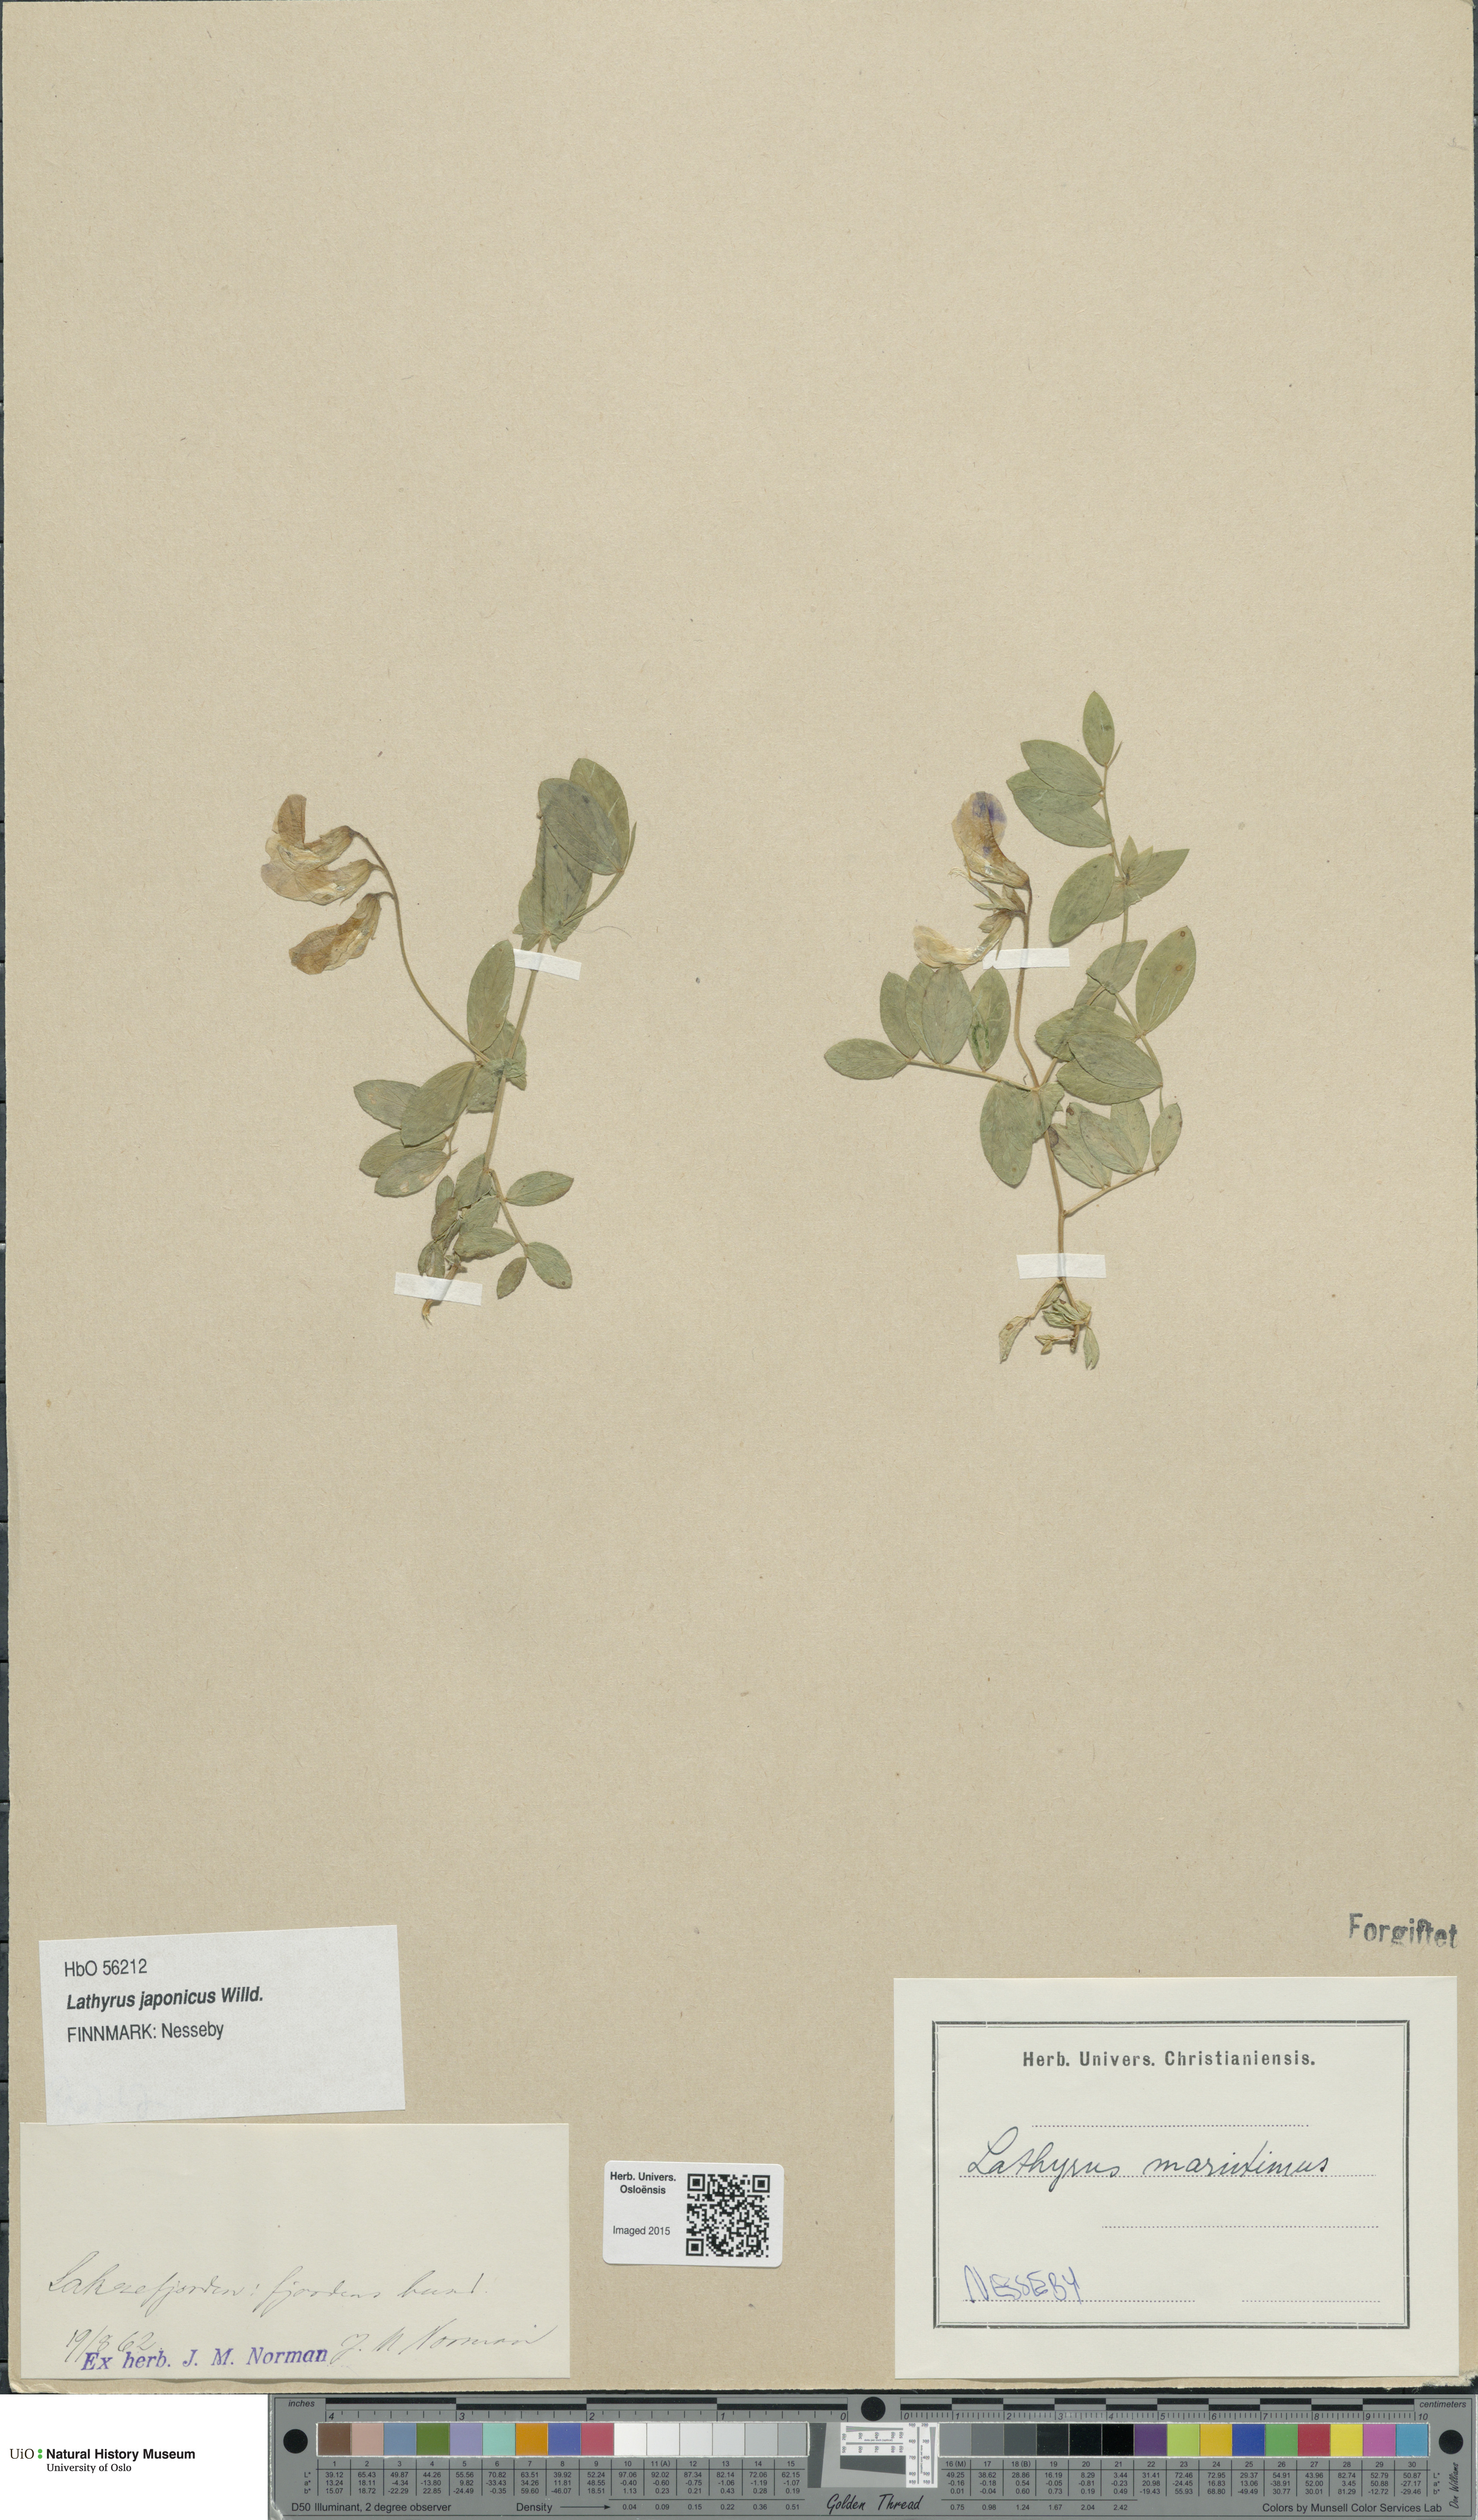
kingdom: Plantae
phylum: Tracheophyta
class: Magnoliopsida
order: Fabales
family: Fabaceae
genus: Lathyrus
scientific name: Lathyrus
